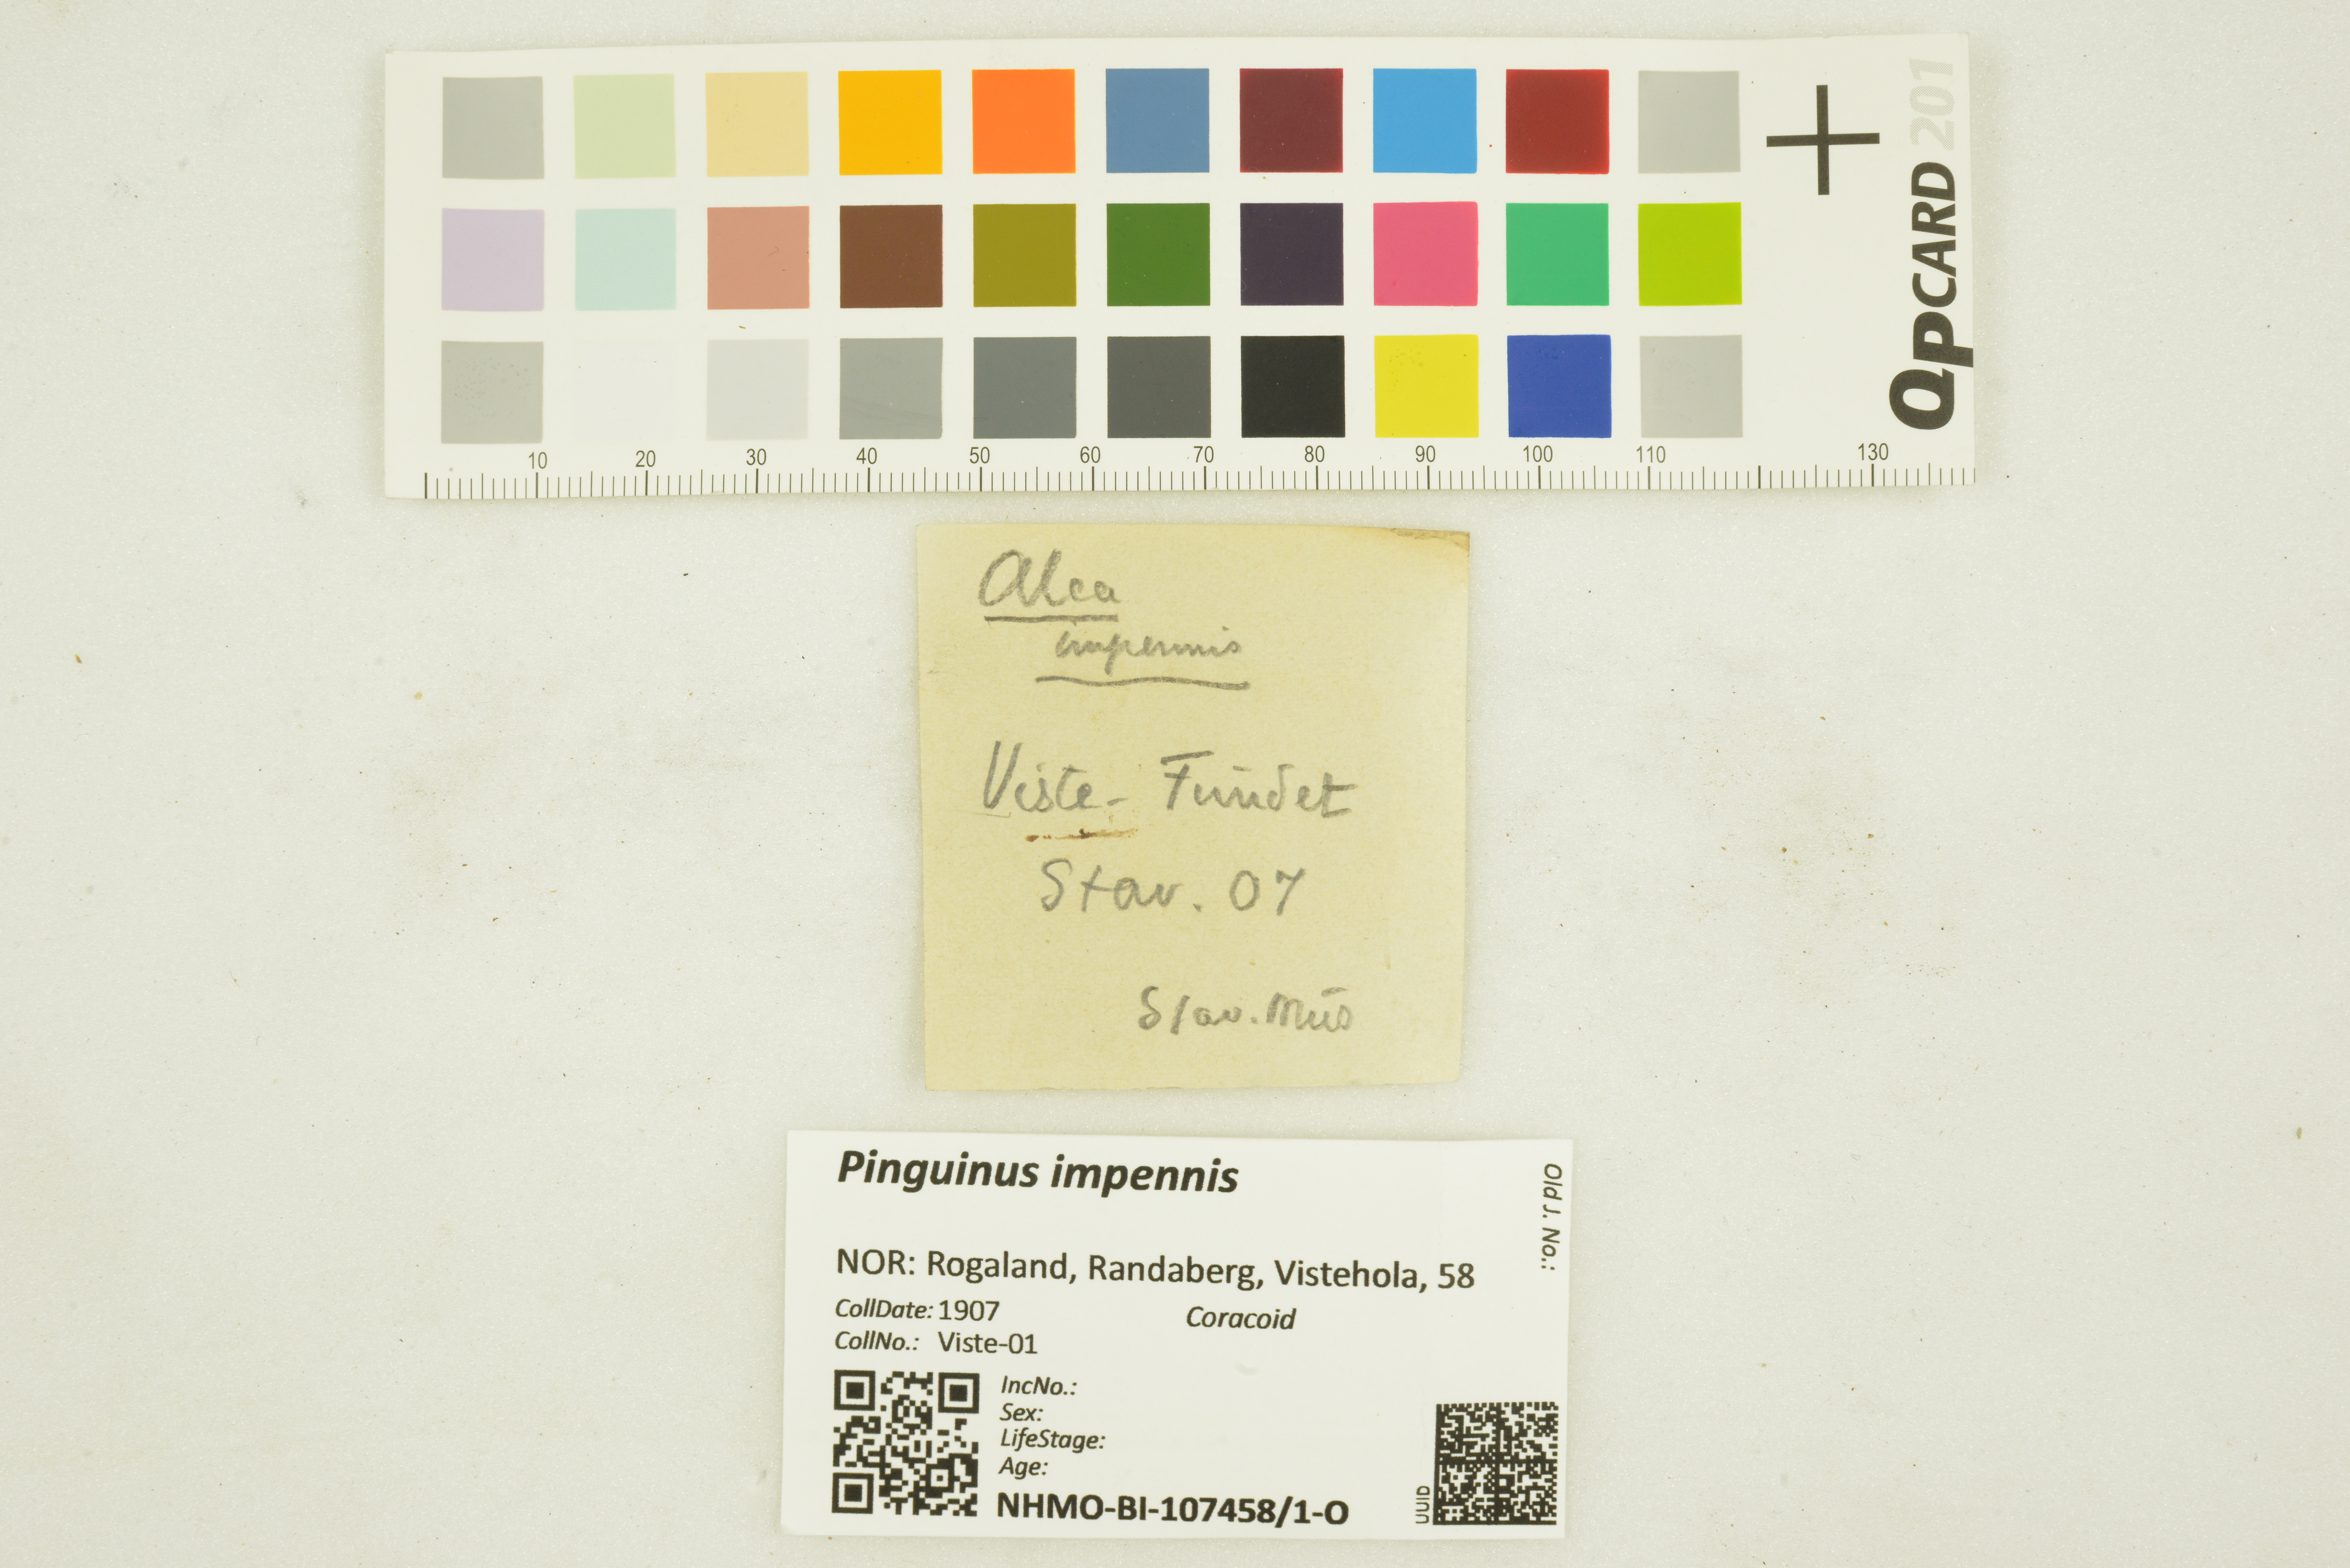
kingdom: Animalia
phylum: Chordata
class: Aves
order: Charadriiformes
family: Alcidae
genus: Pinguinus
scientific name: Pinguinus impennis
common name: Great auk
